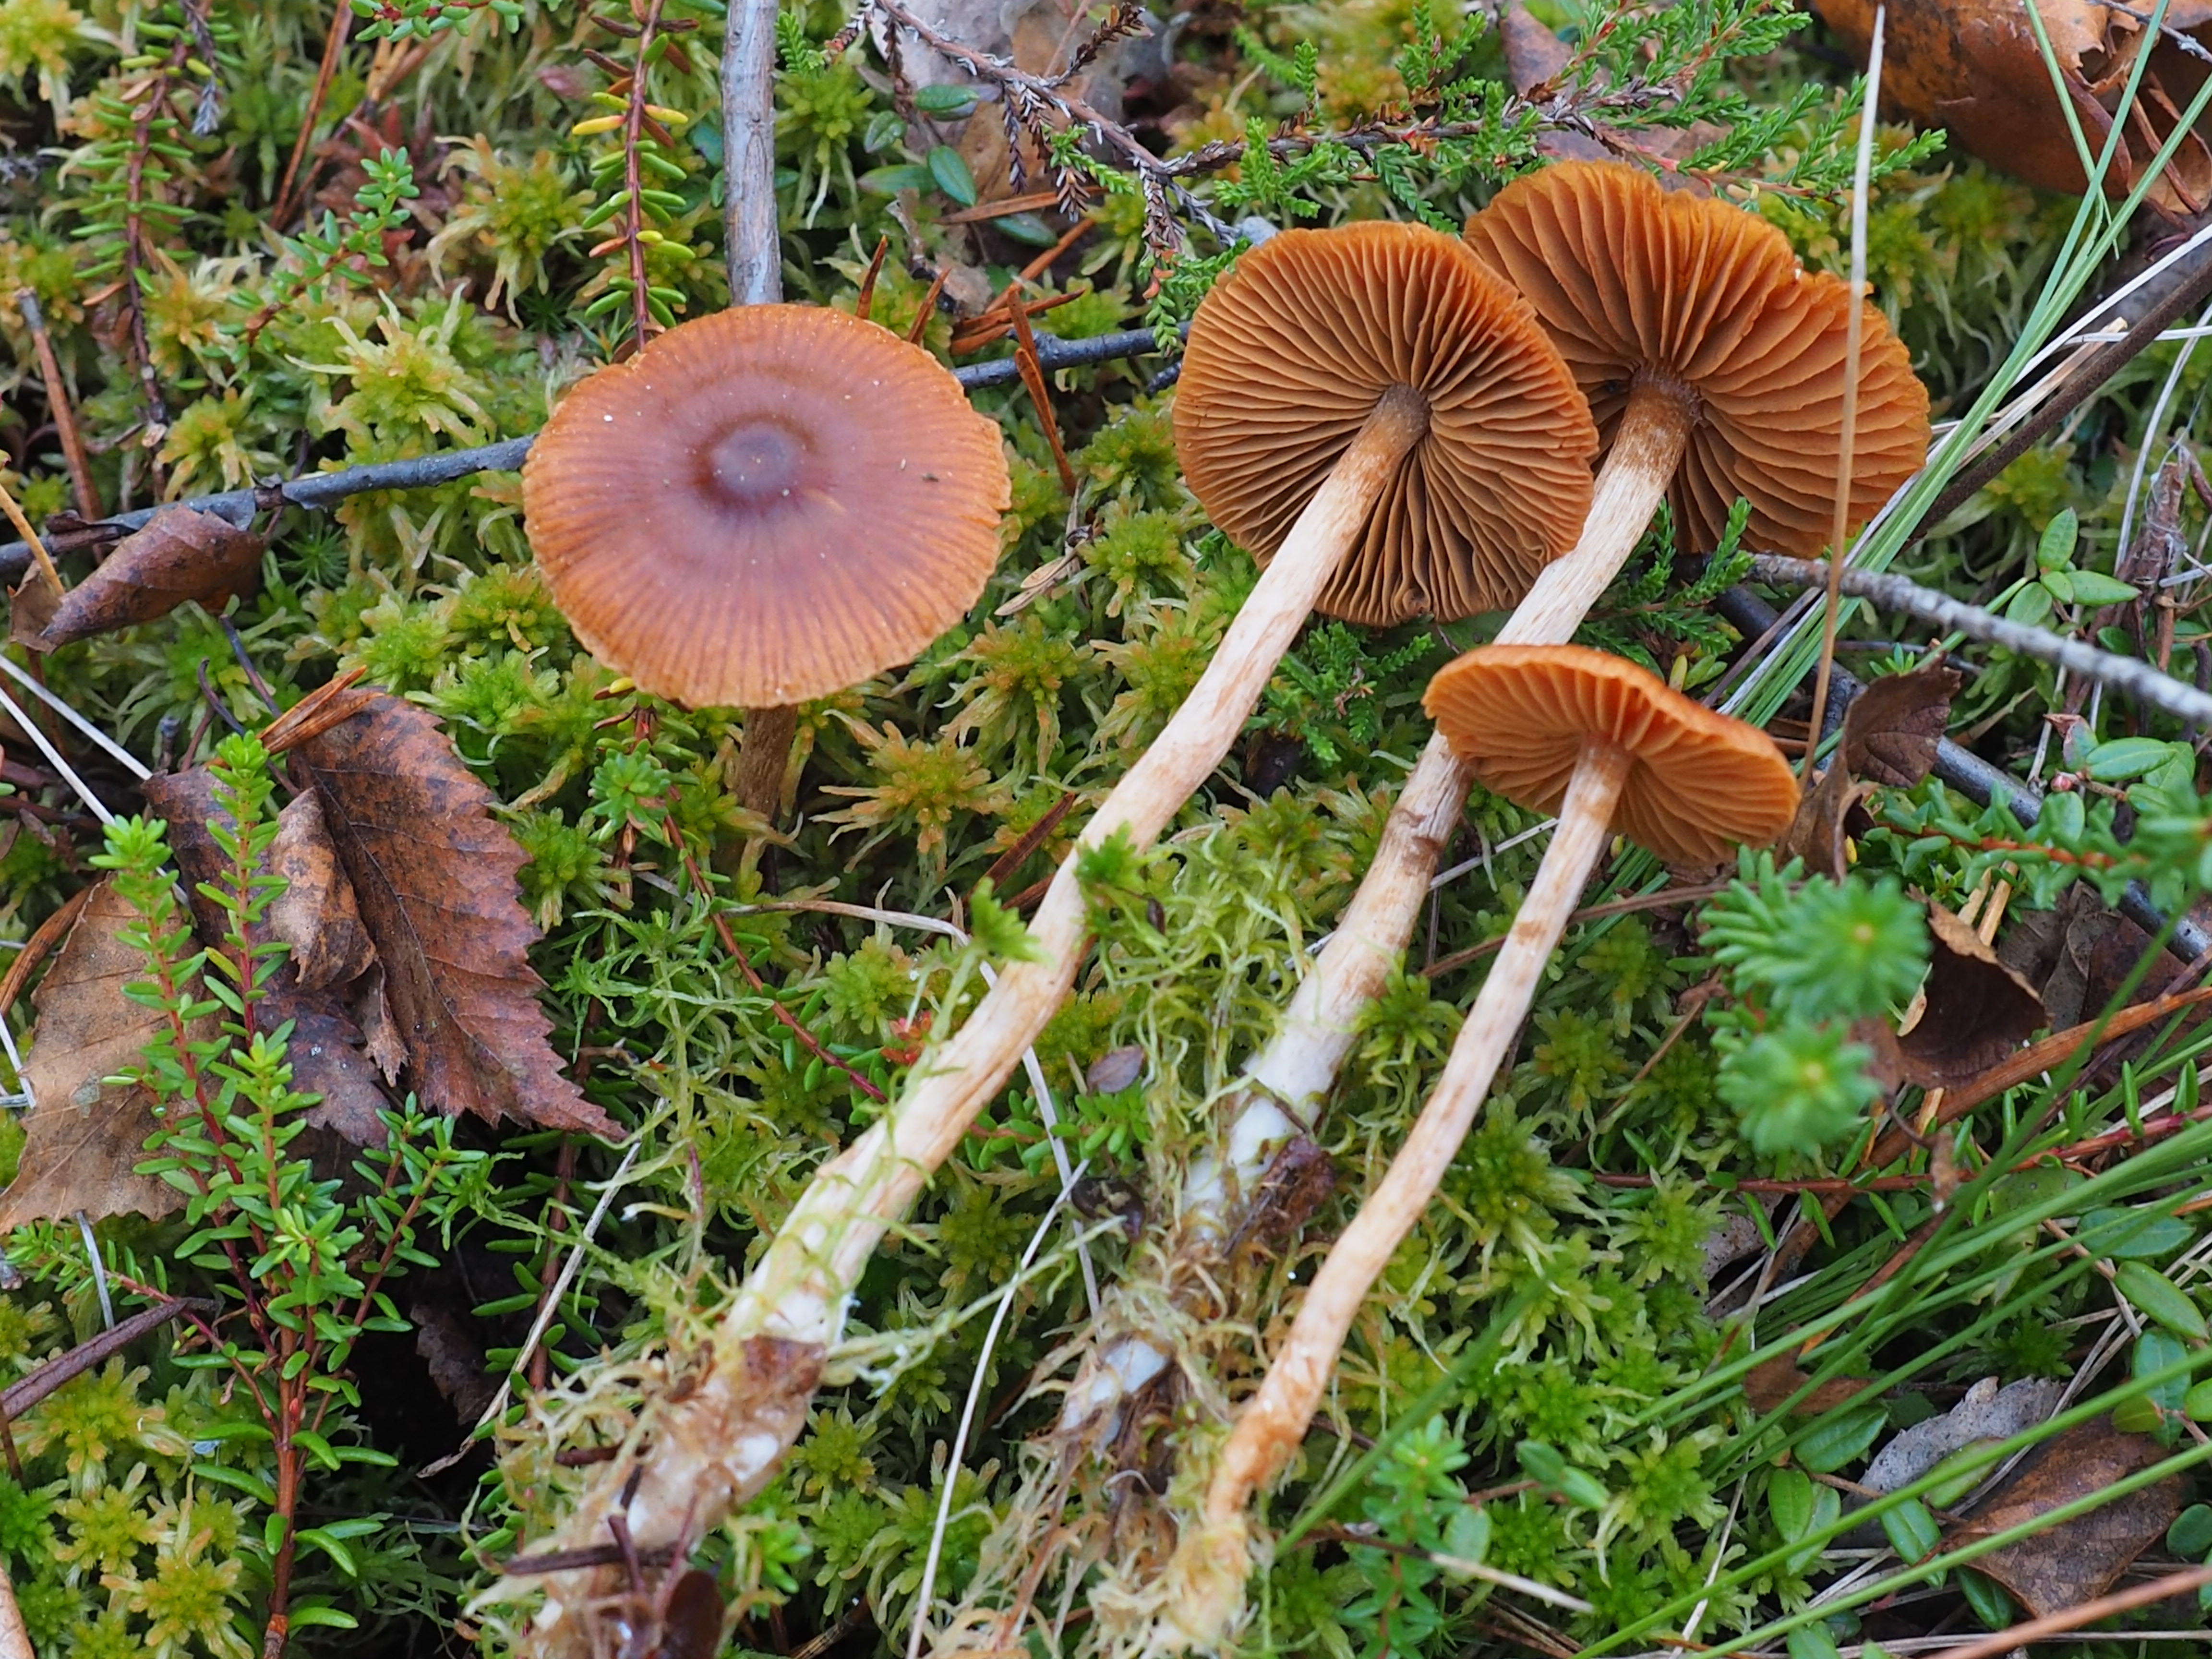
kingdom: Fungi
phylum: Basidiomycota
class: Agaricomycetes
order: Agaricales
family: Cortinariaceae
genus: Cortinarius
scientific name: Cortinarius
